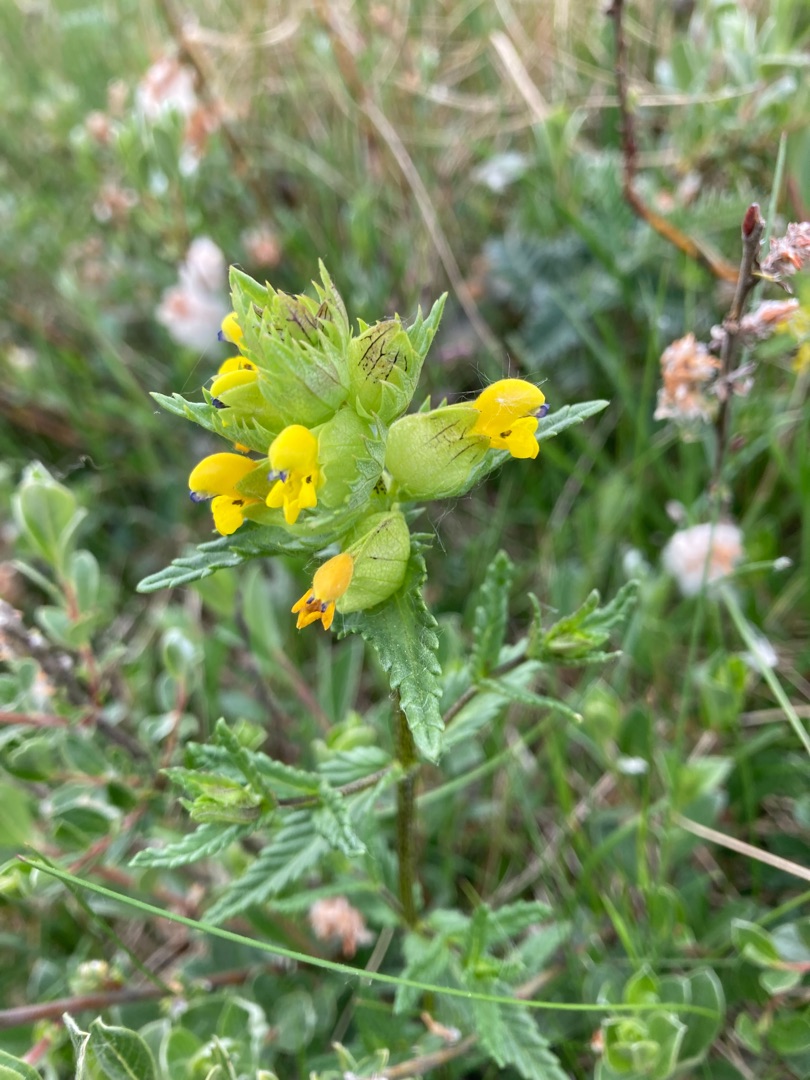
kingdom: Plantae
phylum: Tracheophyta
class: Magnoliopsida
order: Lamiales
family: Orobanchaceae
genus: Rhinanthus
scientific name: Rhinanthus minor
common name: Liden skjaller
